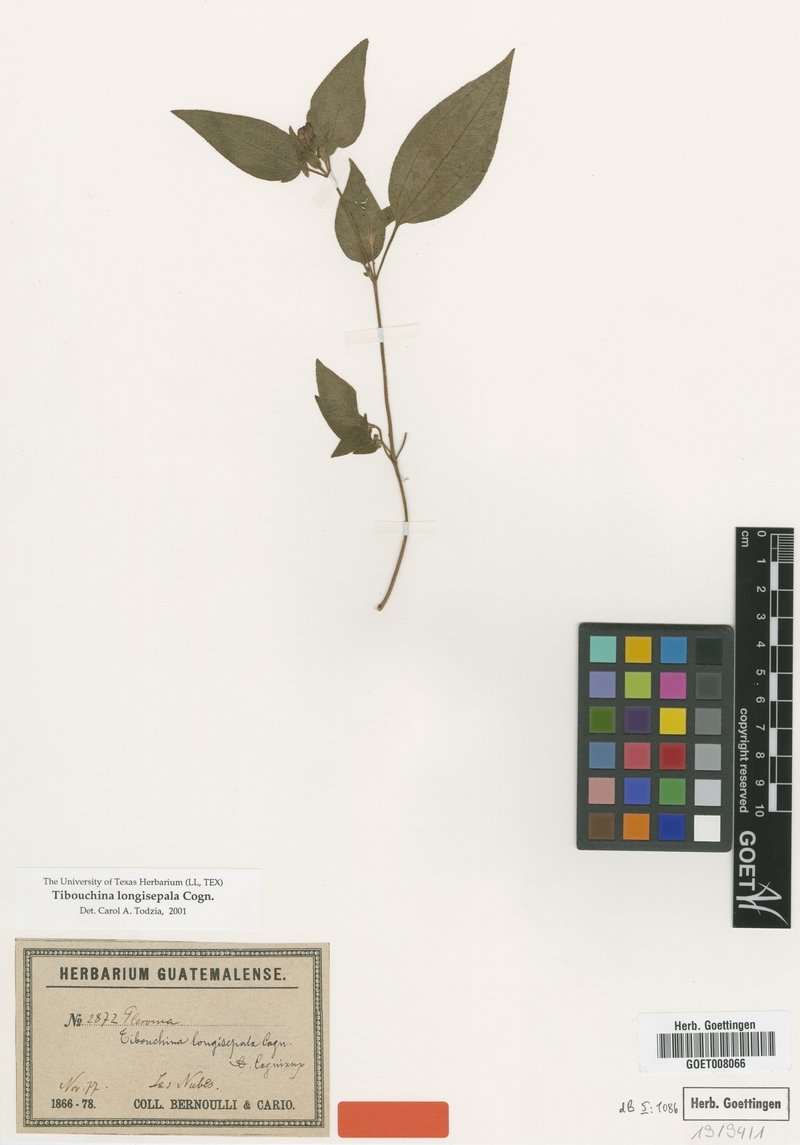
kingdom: Plantae
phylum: Tracheophyta
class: Magnoliopsida
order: Myrtales
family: Melastomataceae
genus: Chaetogastra
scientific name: Chaetogastra longisepala
